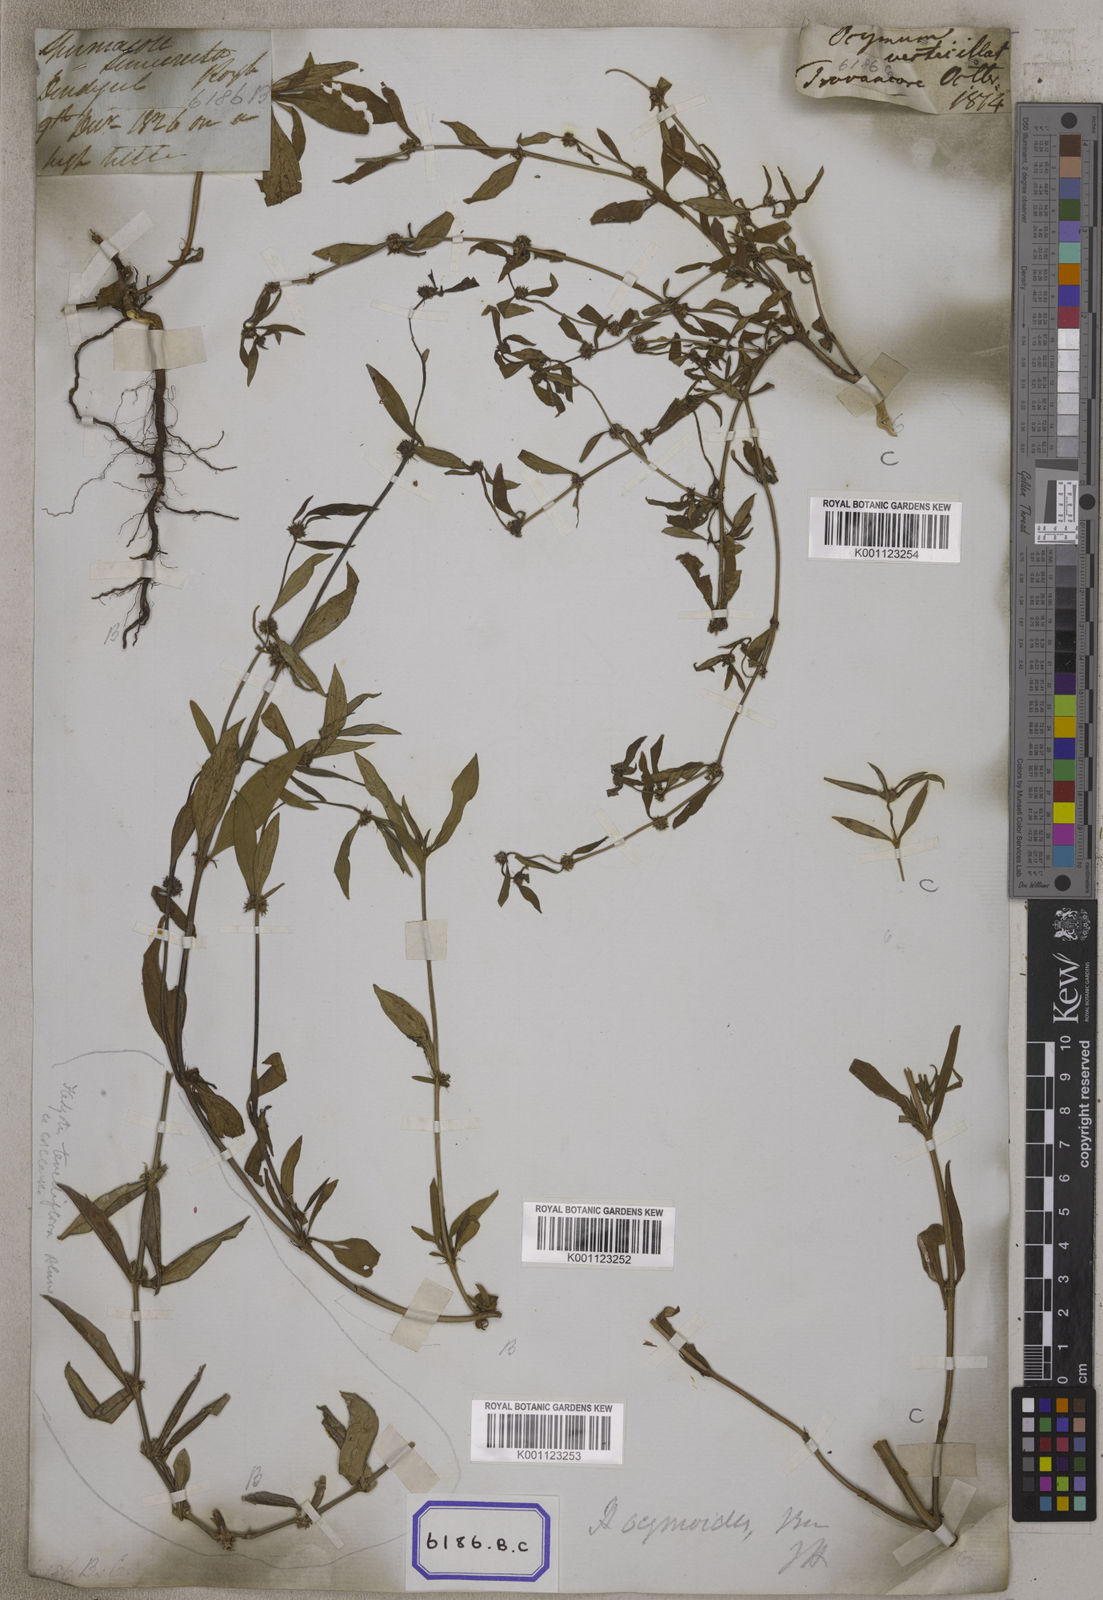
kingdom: Plantae
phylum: Tracheophyta
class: Magnoliopsida
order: Gentianales
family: Rubiaceae
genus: Spermacoce
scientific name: Spermacoce
